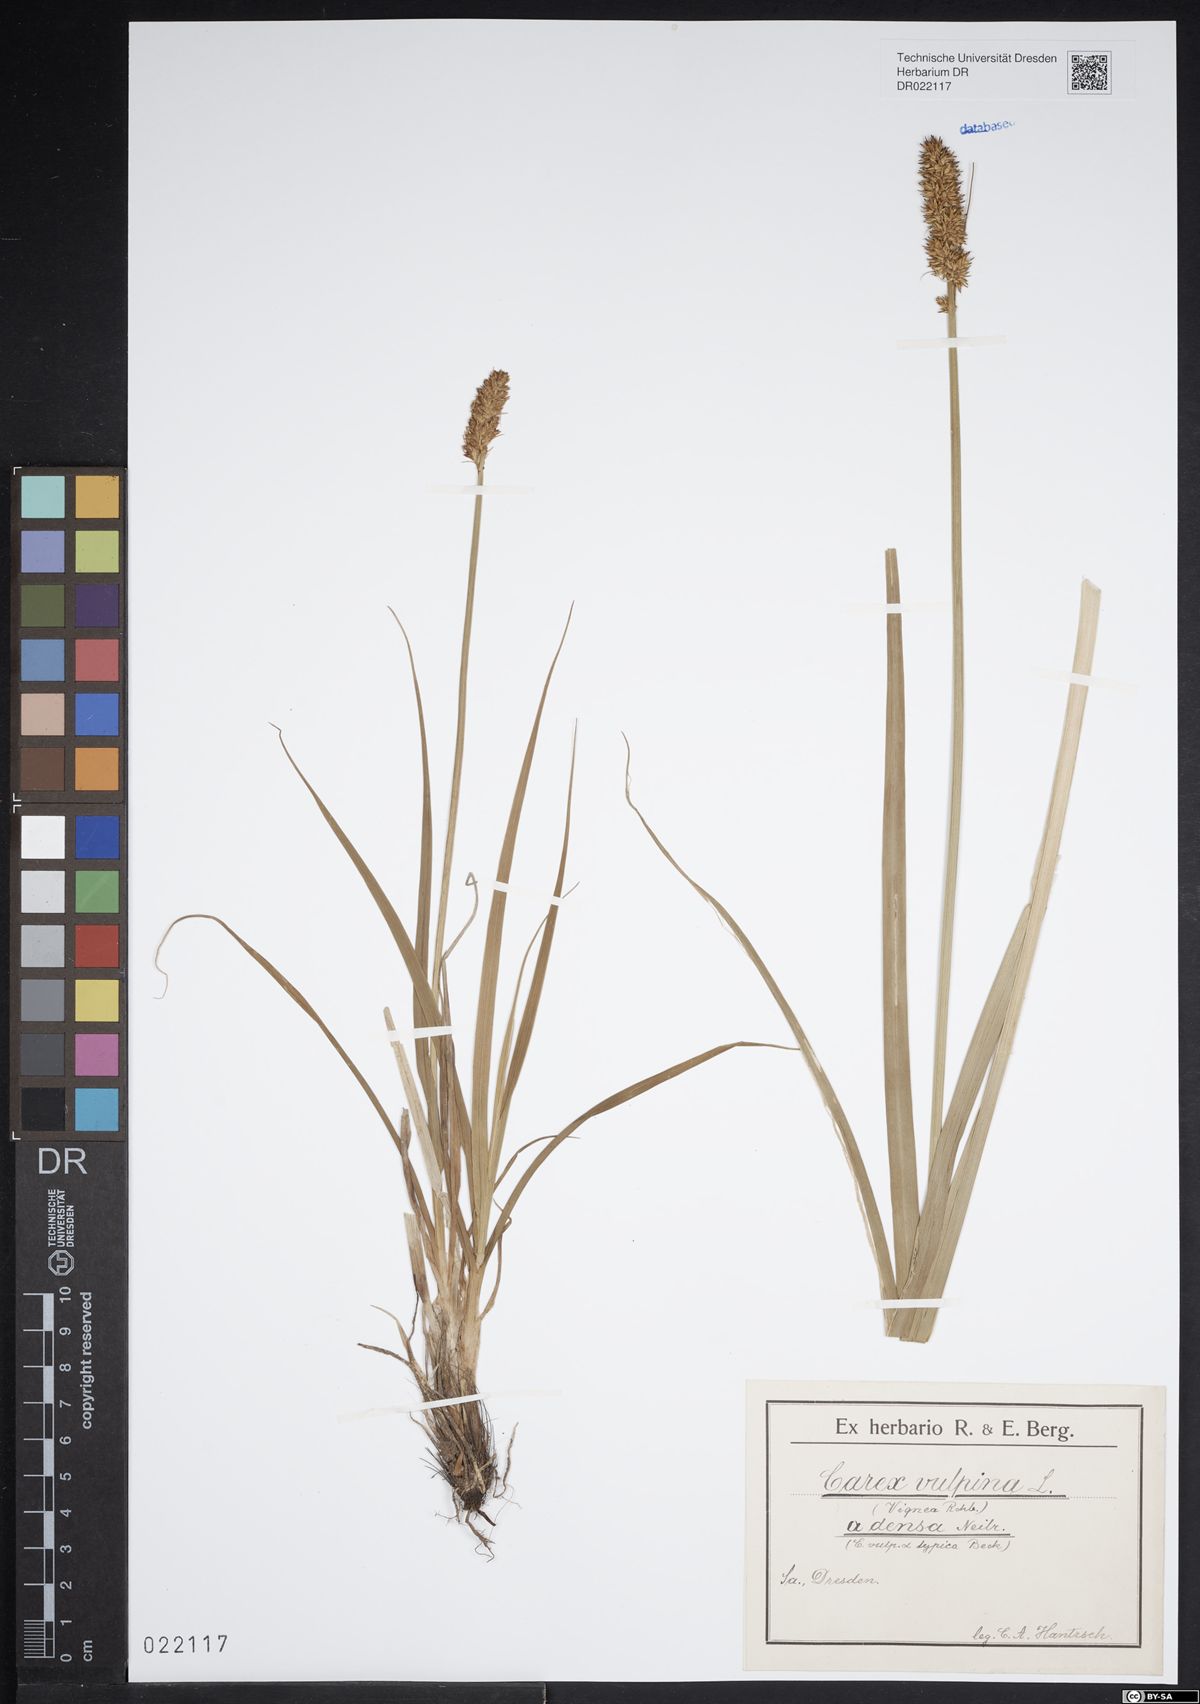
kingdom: Plantae
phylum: Tracheophyta
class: Liliopsida
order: Poales
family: Cyperaceae
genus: Carex
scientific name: Carex vulpina
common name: True fox-sedge
